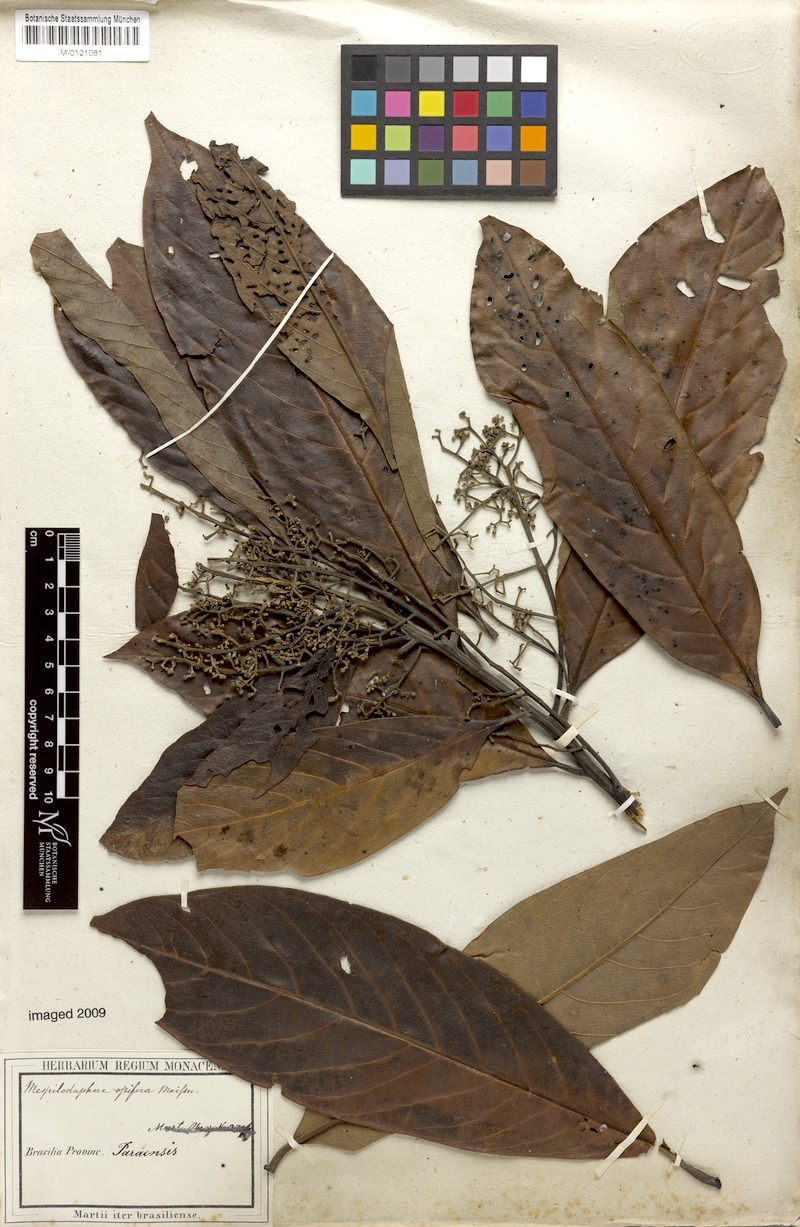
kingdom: Plantae
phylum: Tracheophyta
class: Magnoliopsida
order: Laurales
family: Lauraceae
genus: Mespilodaphne
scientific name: Mespilodaphne opifera
